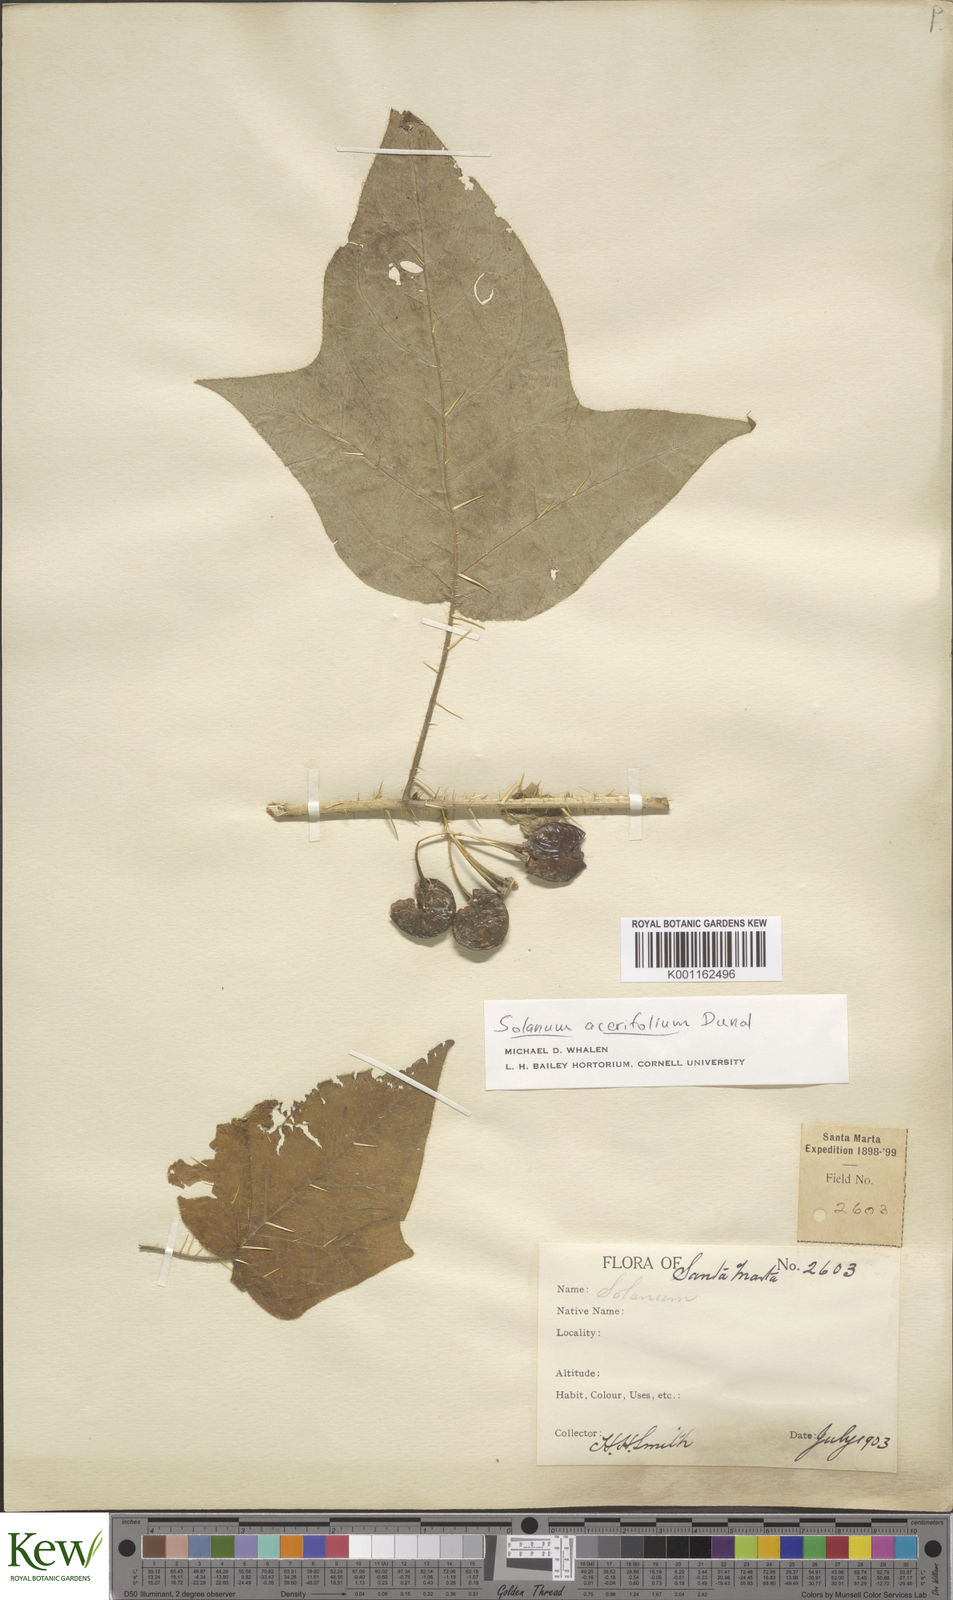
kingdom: Plantae
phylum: Tracheophyta
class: Magnoliopsida
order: Solanales
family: Solanaceae
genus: Solanum
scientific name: Solanum acerifolium
